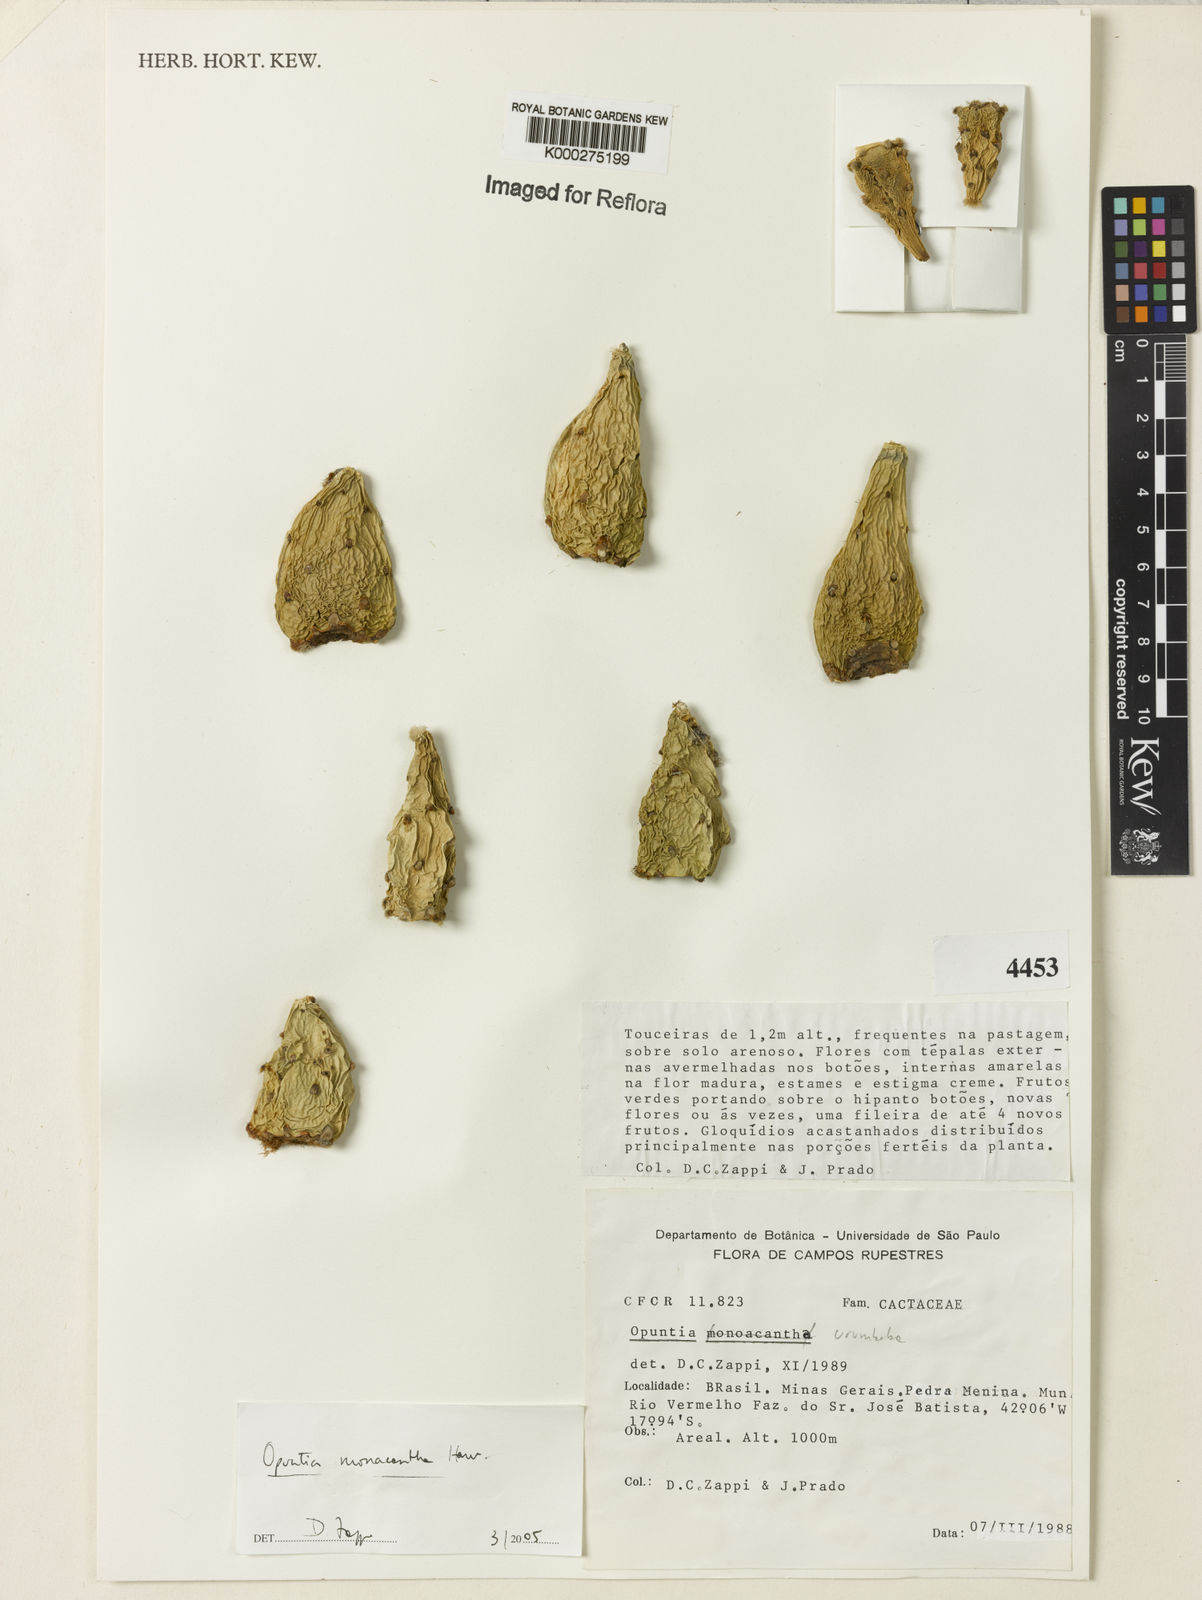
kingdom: Plantae
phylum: Tracheophyta
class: Magnoliopsida
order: Caryophyllales
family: Cactaceae
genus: Opuntia
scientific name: Opuntia monacantha
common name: Common pricklypear
